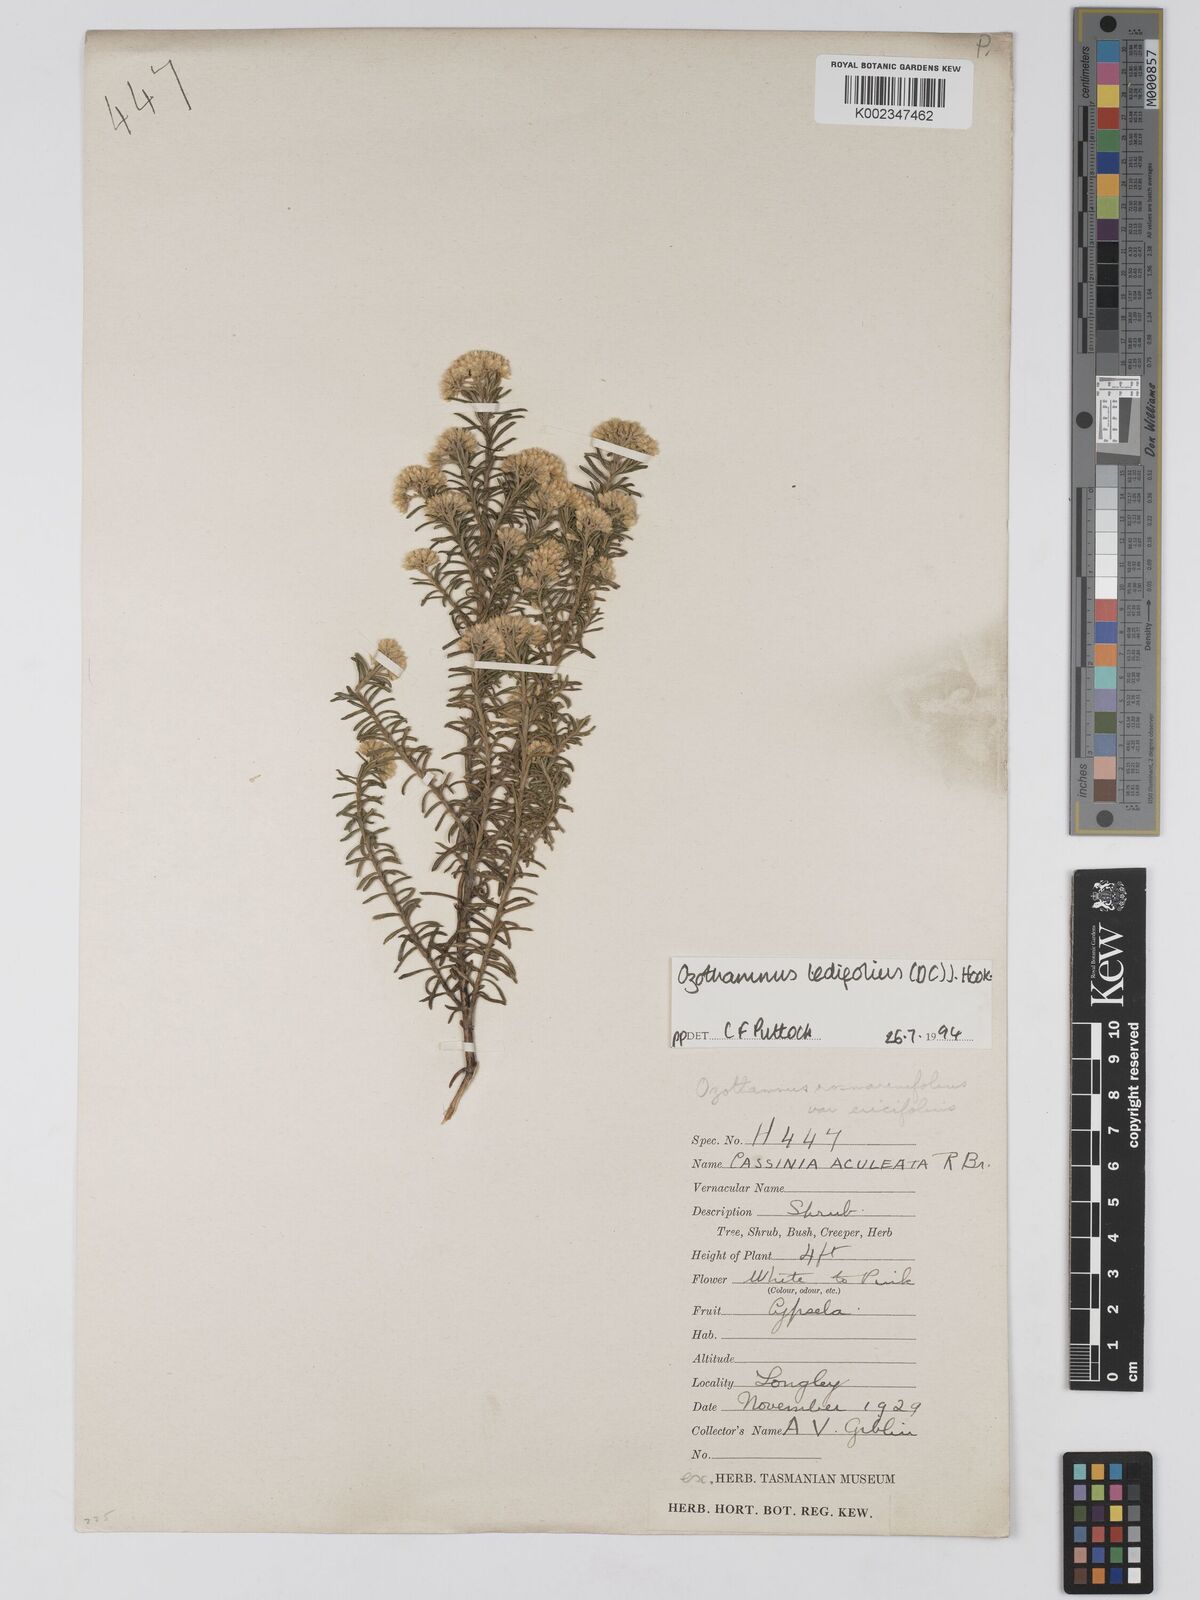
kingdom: Plantae
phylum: Tracheophyta
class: Magnoliopsida
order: Asterales
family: Asteraceae
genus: Ozothamnus
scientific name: Ozothamnus ledifolius
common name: Kerosene-weed
